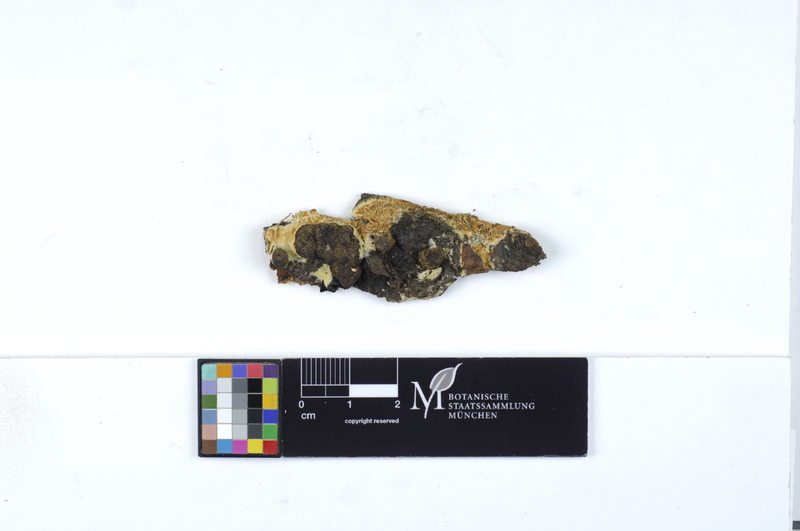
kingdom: Fungi
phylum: Basidiomycota
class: Agaricomycetes
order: Polyporales
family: Irpicaceae
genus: Crystallicutis
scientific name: Crystallicutis serpens
